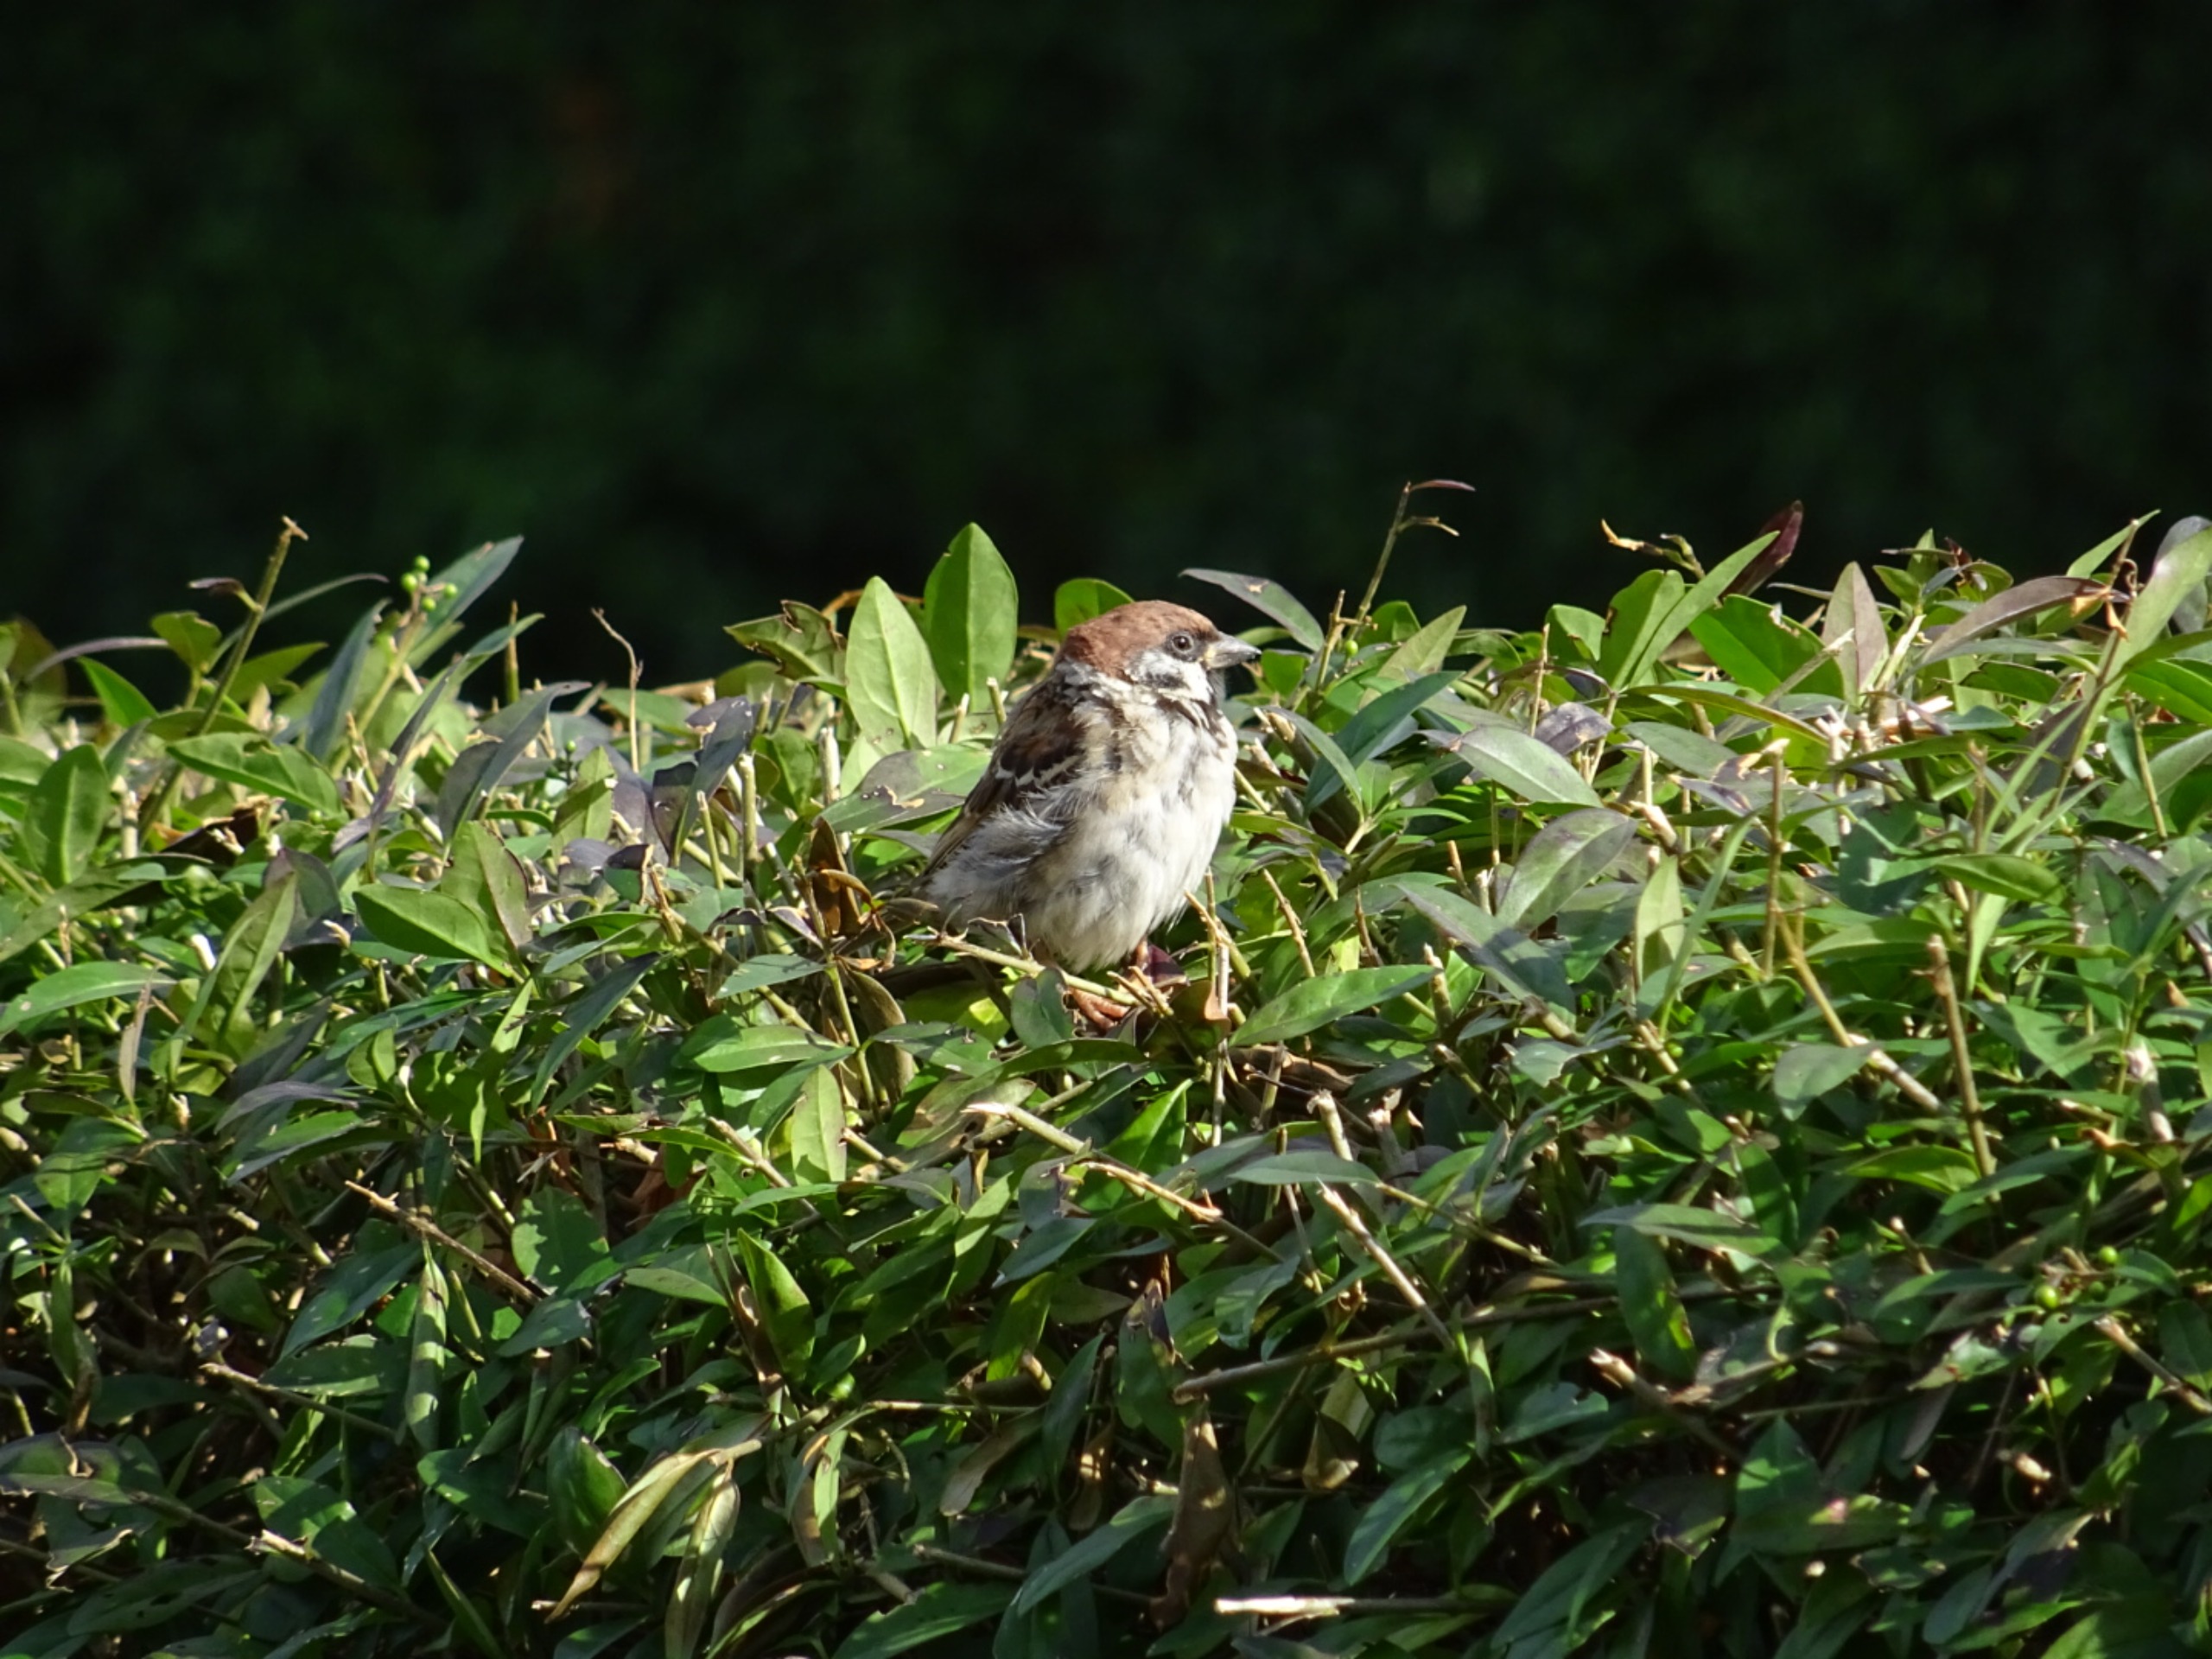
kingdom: Animalia
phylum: Chordata
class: Aves
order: Passeriformes
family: Passeridae
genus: Passer
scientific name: Passer montanus
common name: Skovspurv
